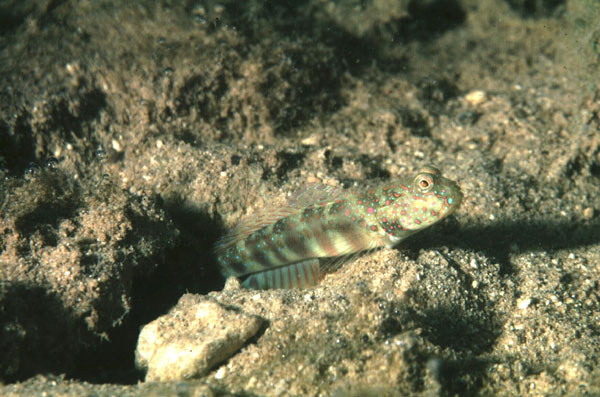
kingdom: Animalia
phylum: Chordata
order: Perciformes
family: Gobiidae
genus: Cryptocentrus
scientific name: Cryptocentrus leptocephalus
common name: Leptocephalus prawn-goby
